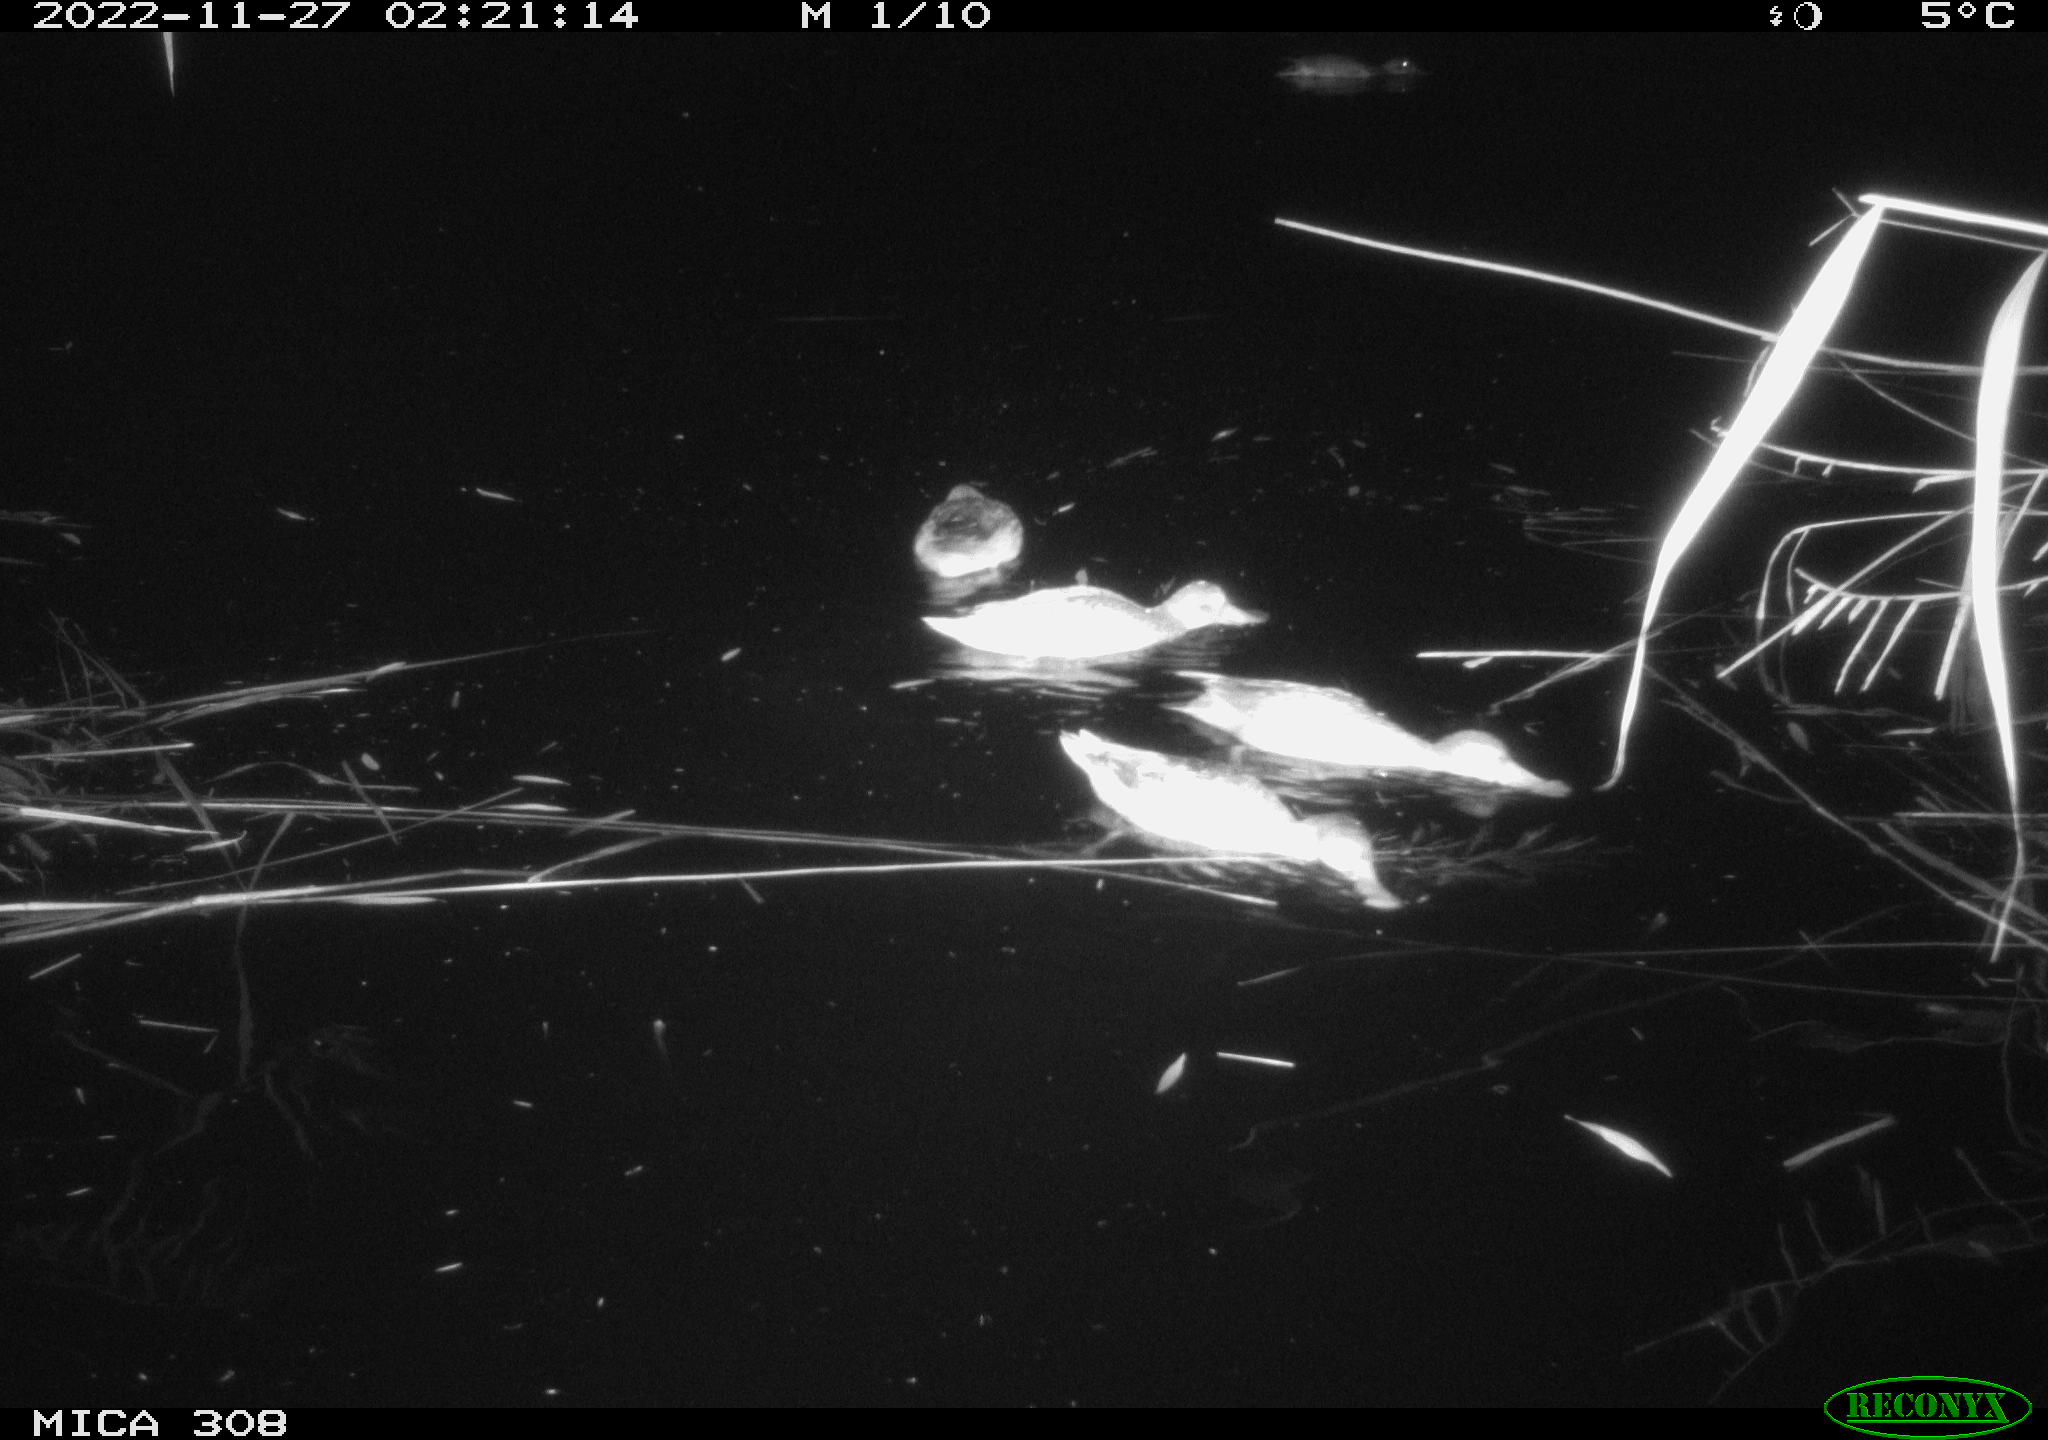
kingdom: Animalia
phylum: Chordata
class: Aves
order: Anseriformes
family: Anatidae
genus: Anas
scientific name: Anas
